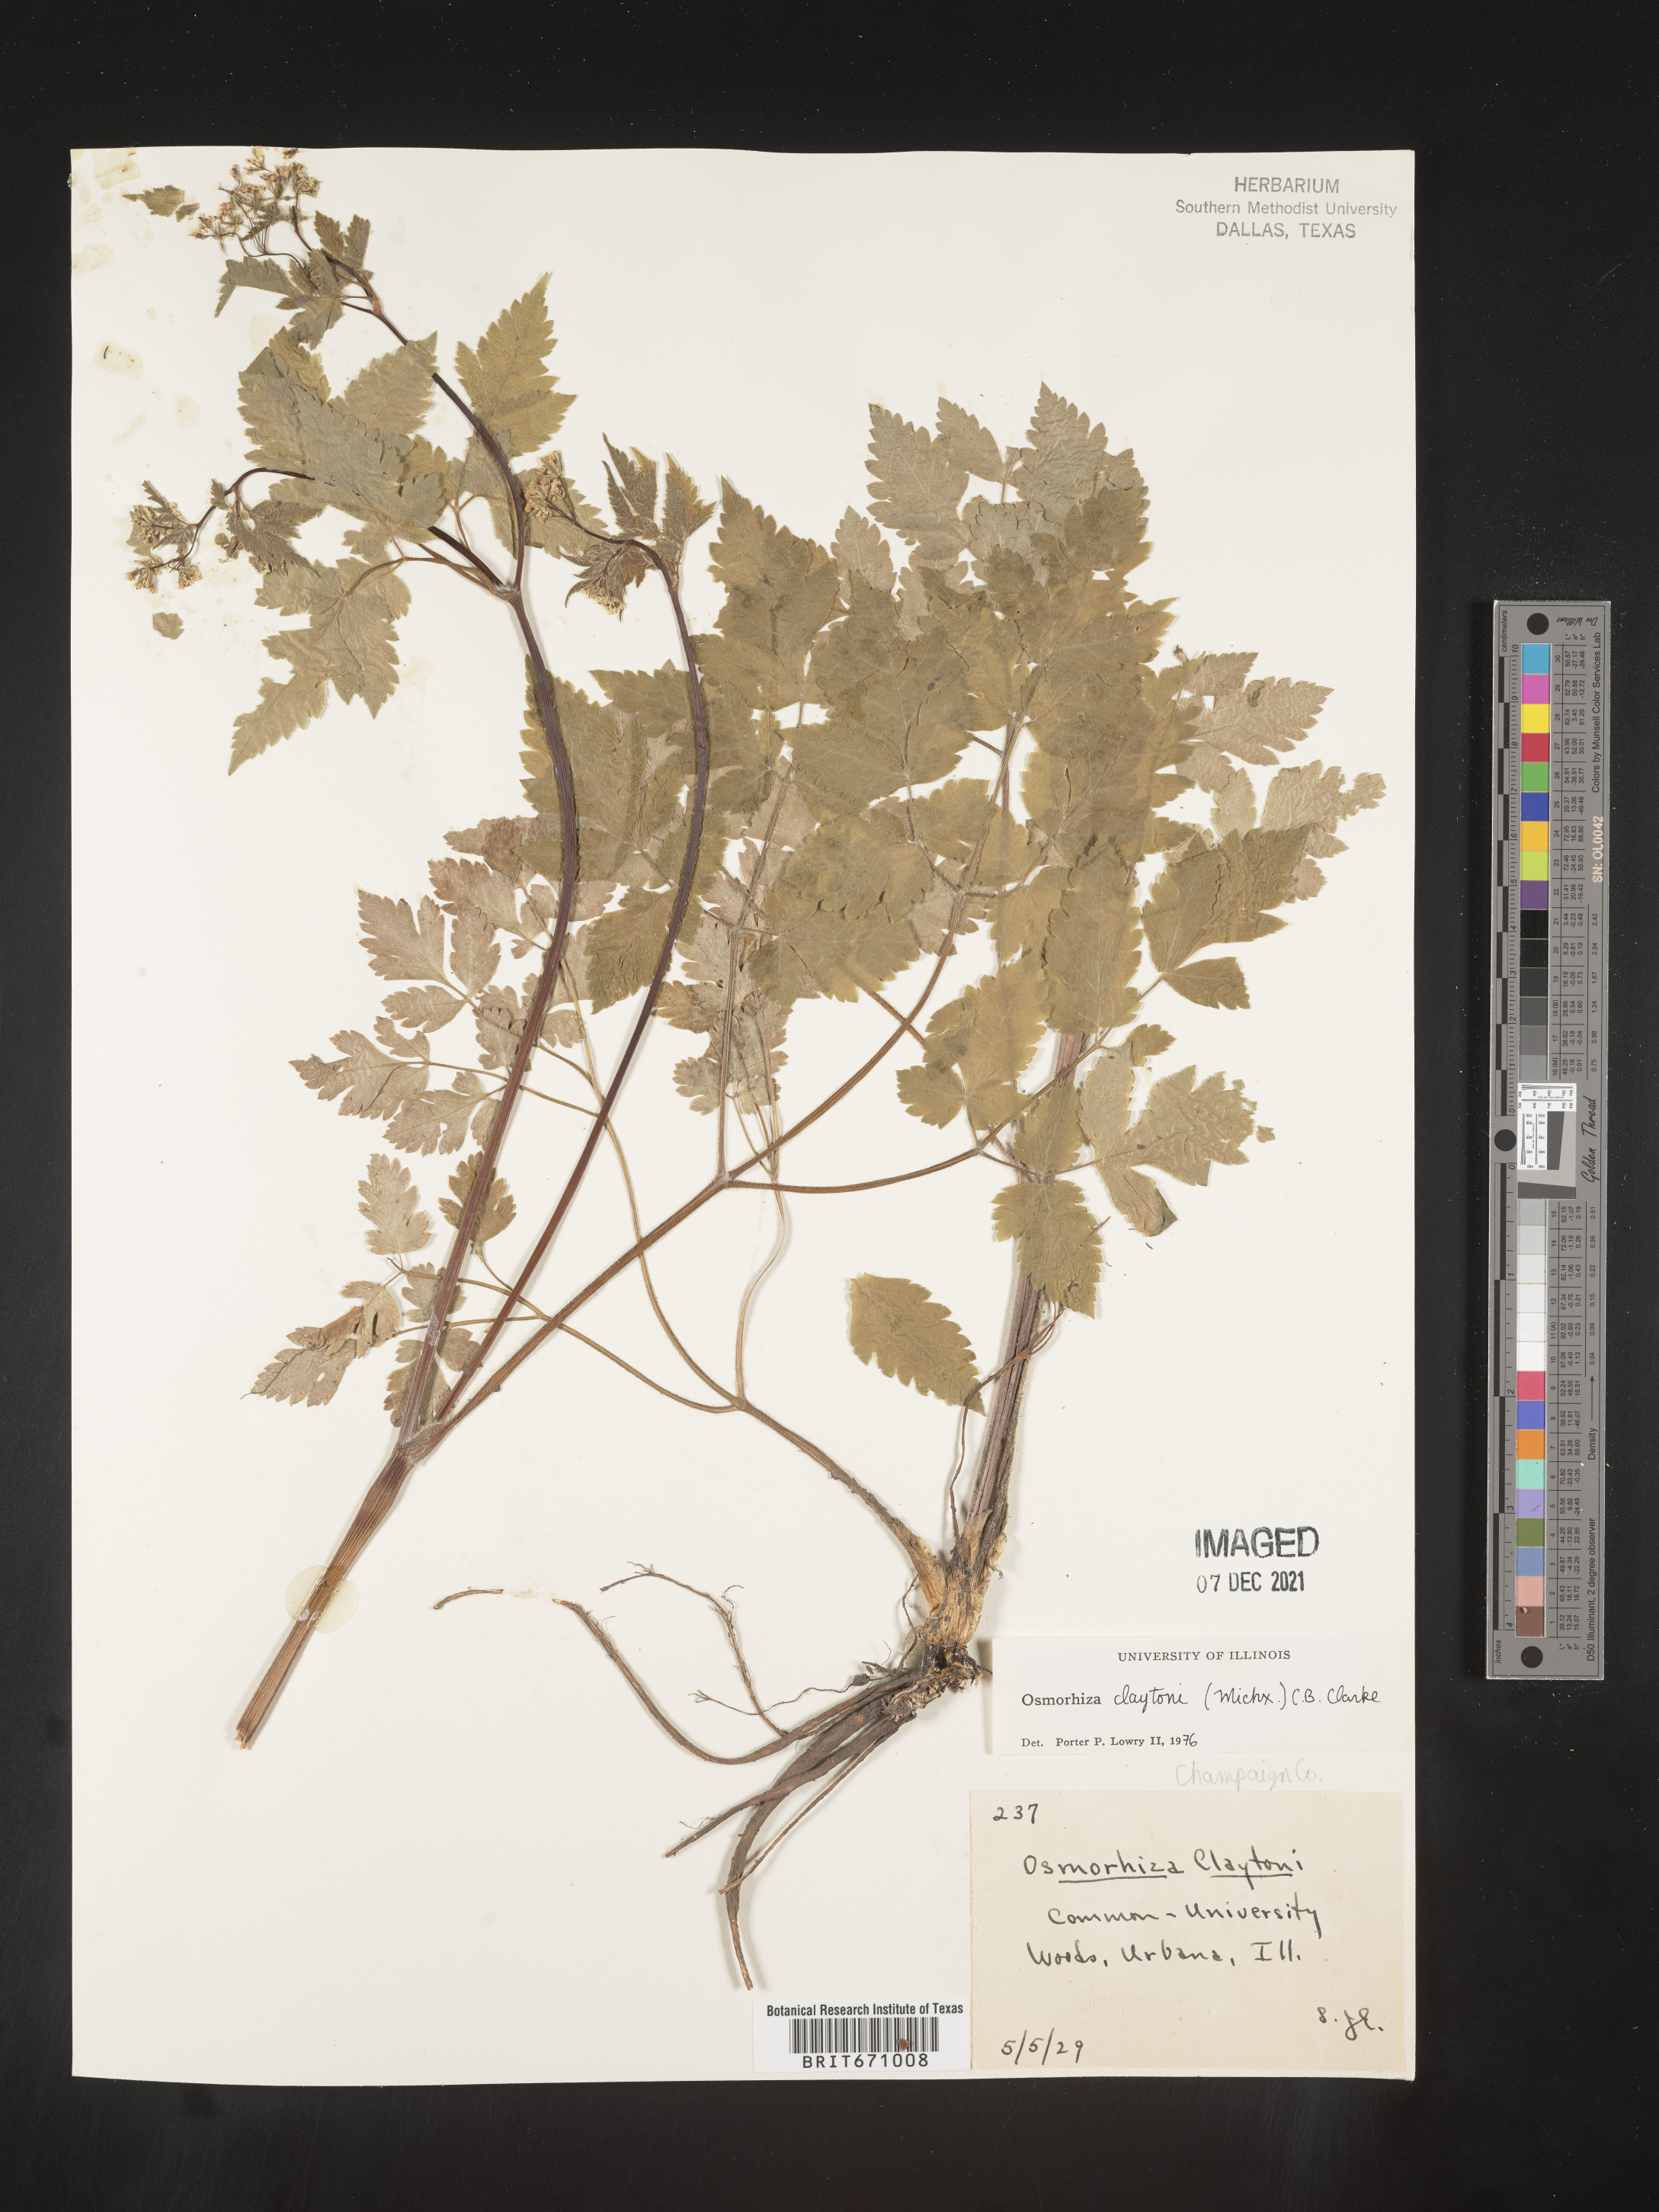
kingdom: Plantae
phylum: Tracheophyta
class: Magnoliopsida
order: Apiales
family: Apiaceae
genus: Osmorhiza
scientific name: Osmorhiza claytonii
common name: Hairy sweet cicely
